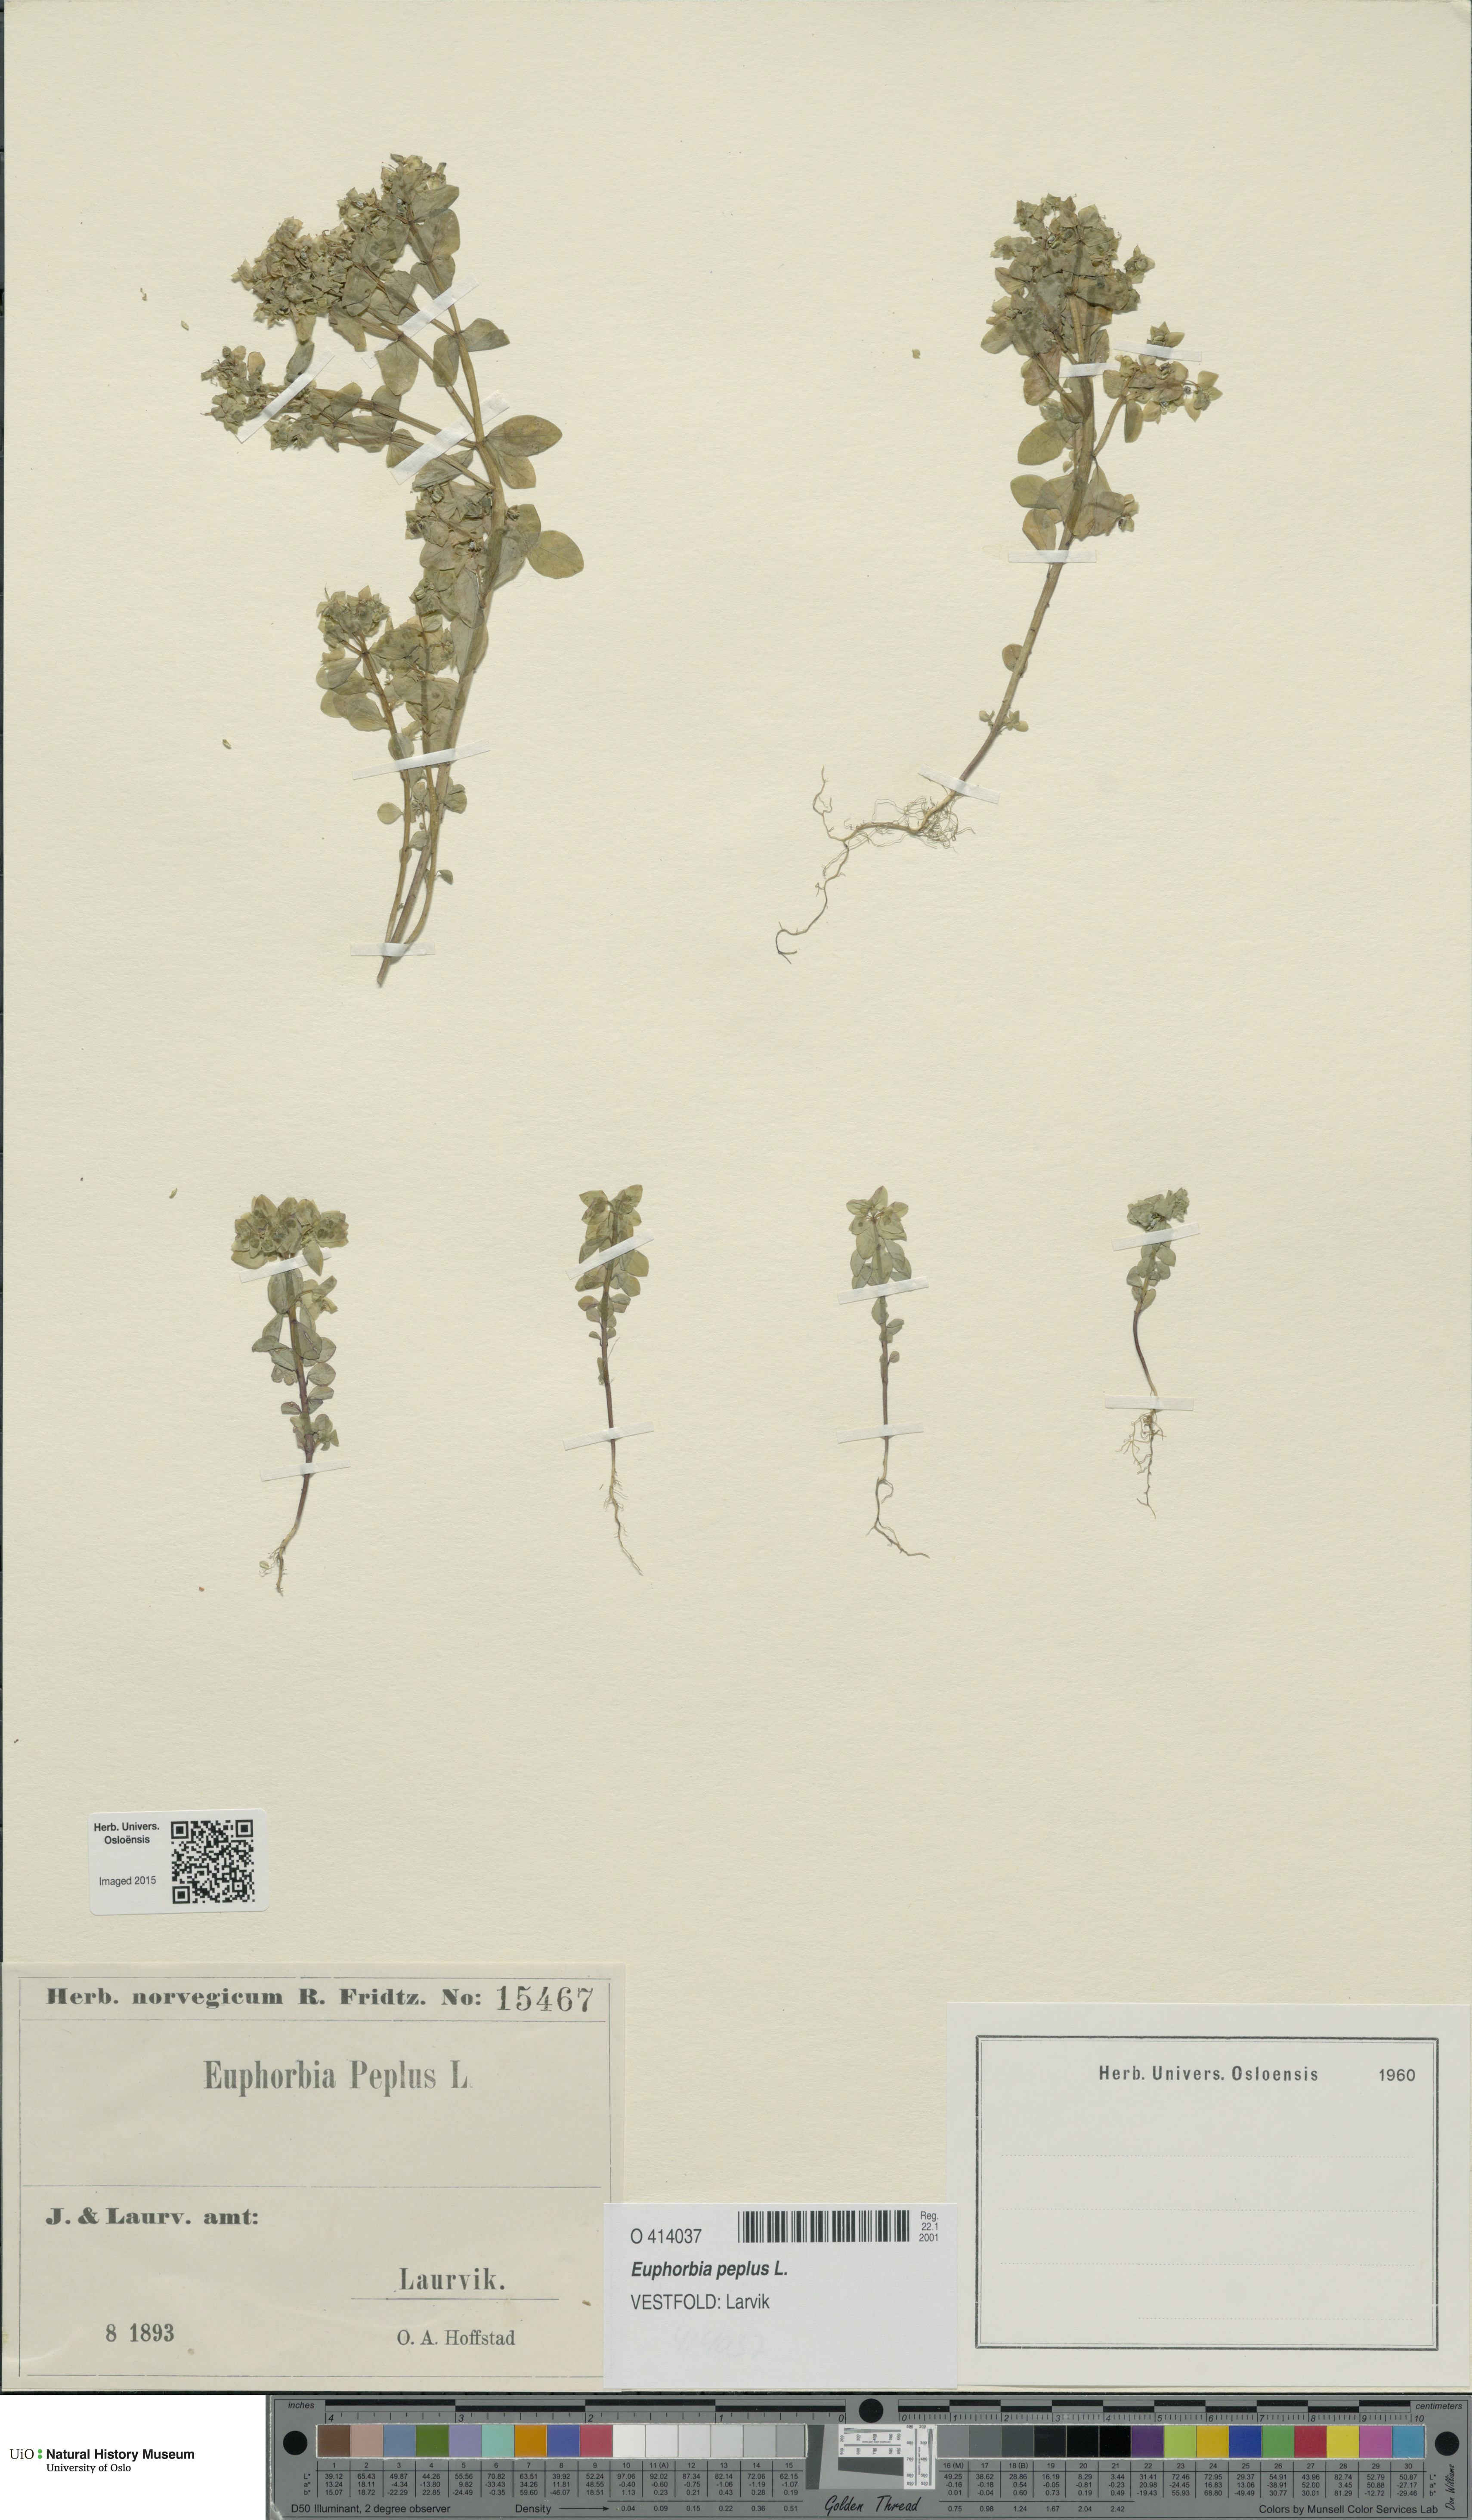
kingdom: Plantae
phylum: Tracheophyta
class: Magnoliopsida
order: Malpighiales
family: Euphorbiaceae
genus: Euphorbia
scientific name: Euphorbia peplus
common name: Petty spurge
